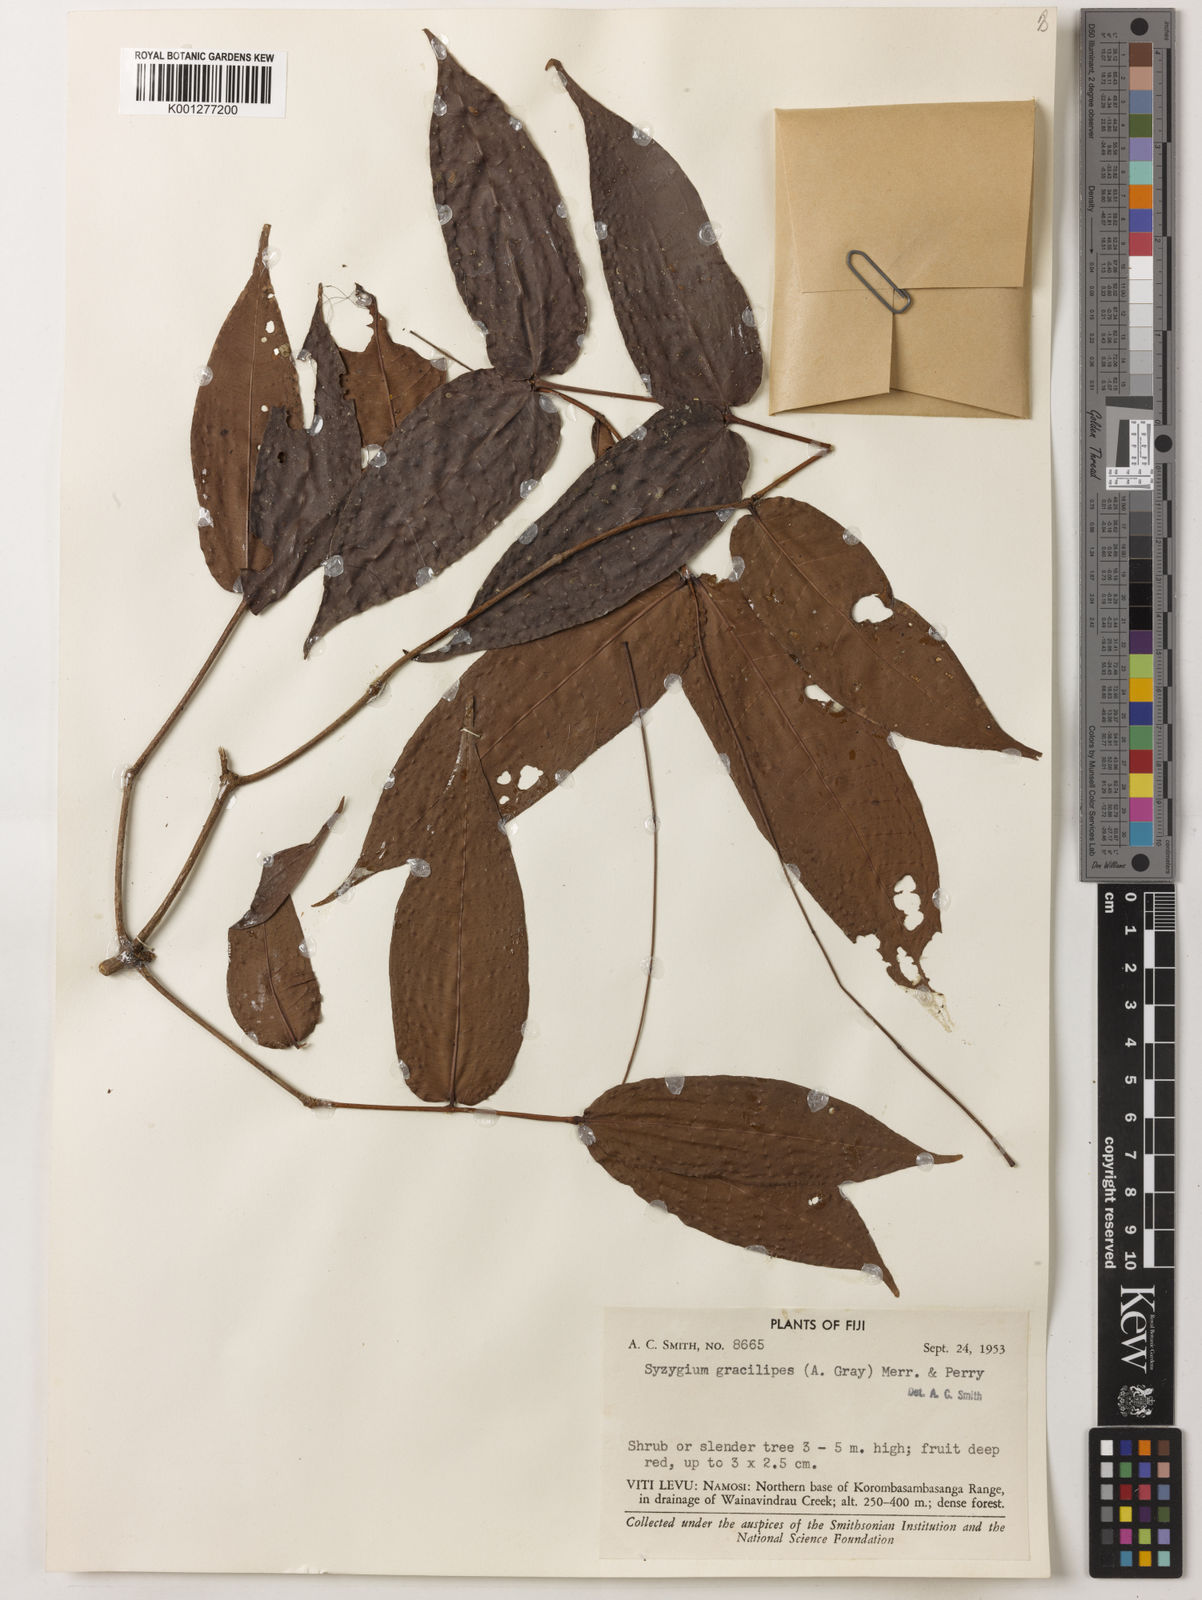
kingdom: Plantae
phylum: Tracheophyta
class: Magnoliopsida
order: Myrtales
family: Myrtaceae
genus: Syzygium
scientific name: Syzygium gracilipes
